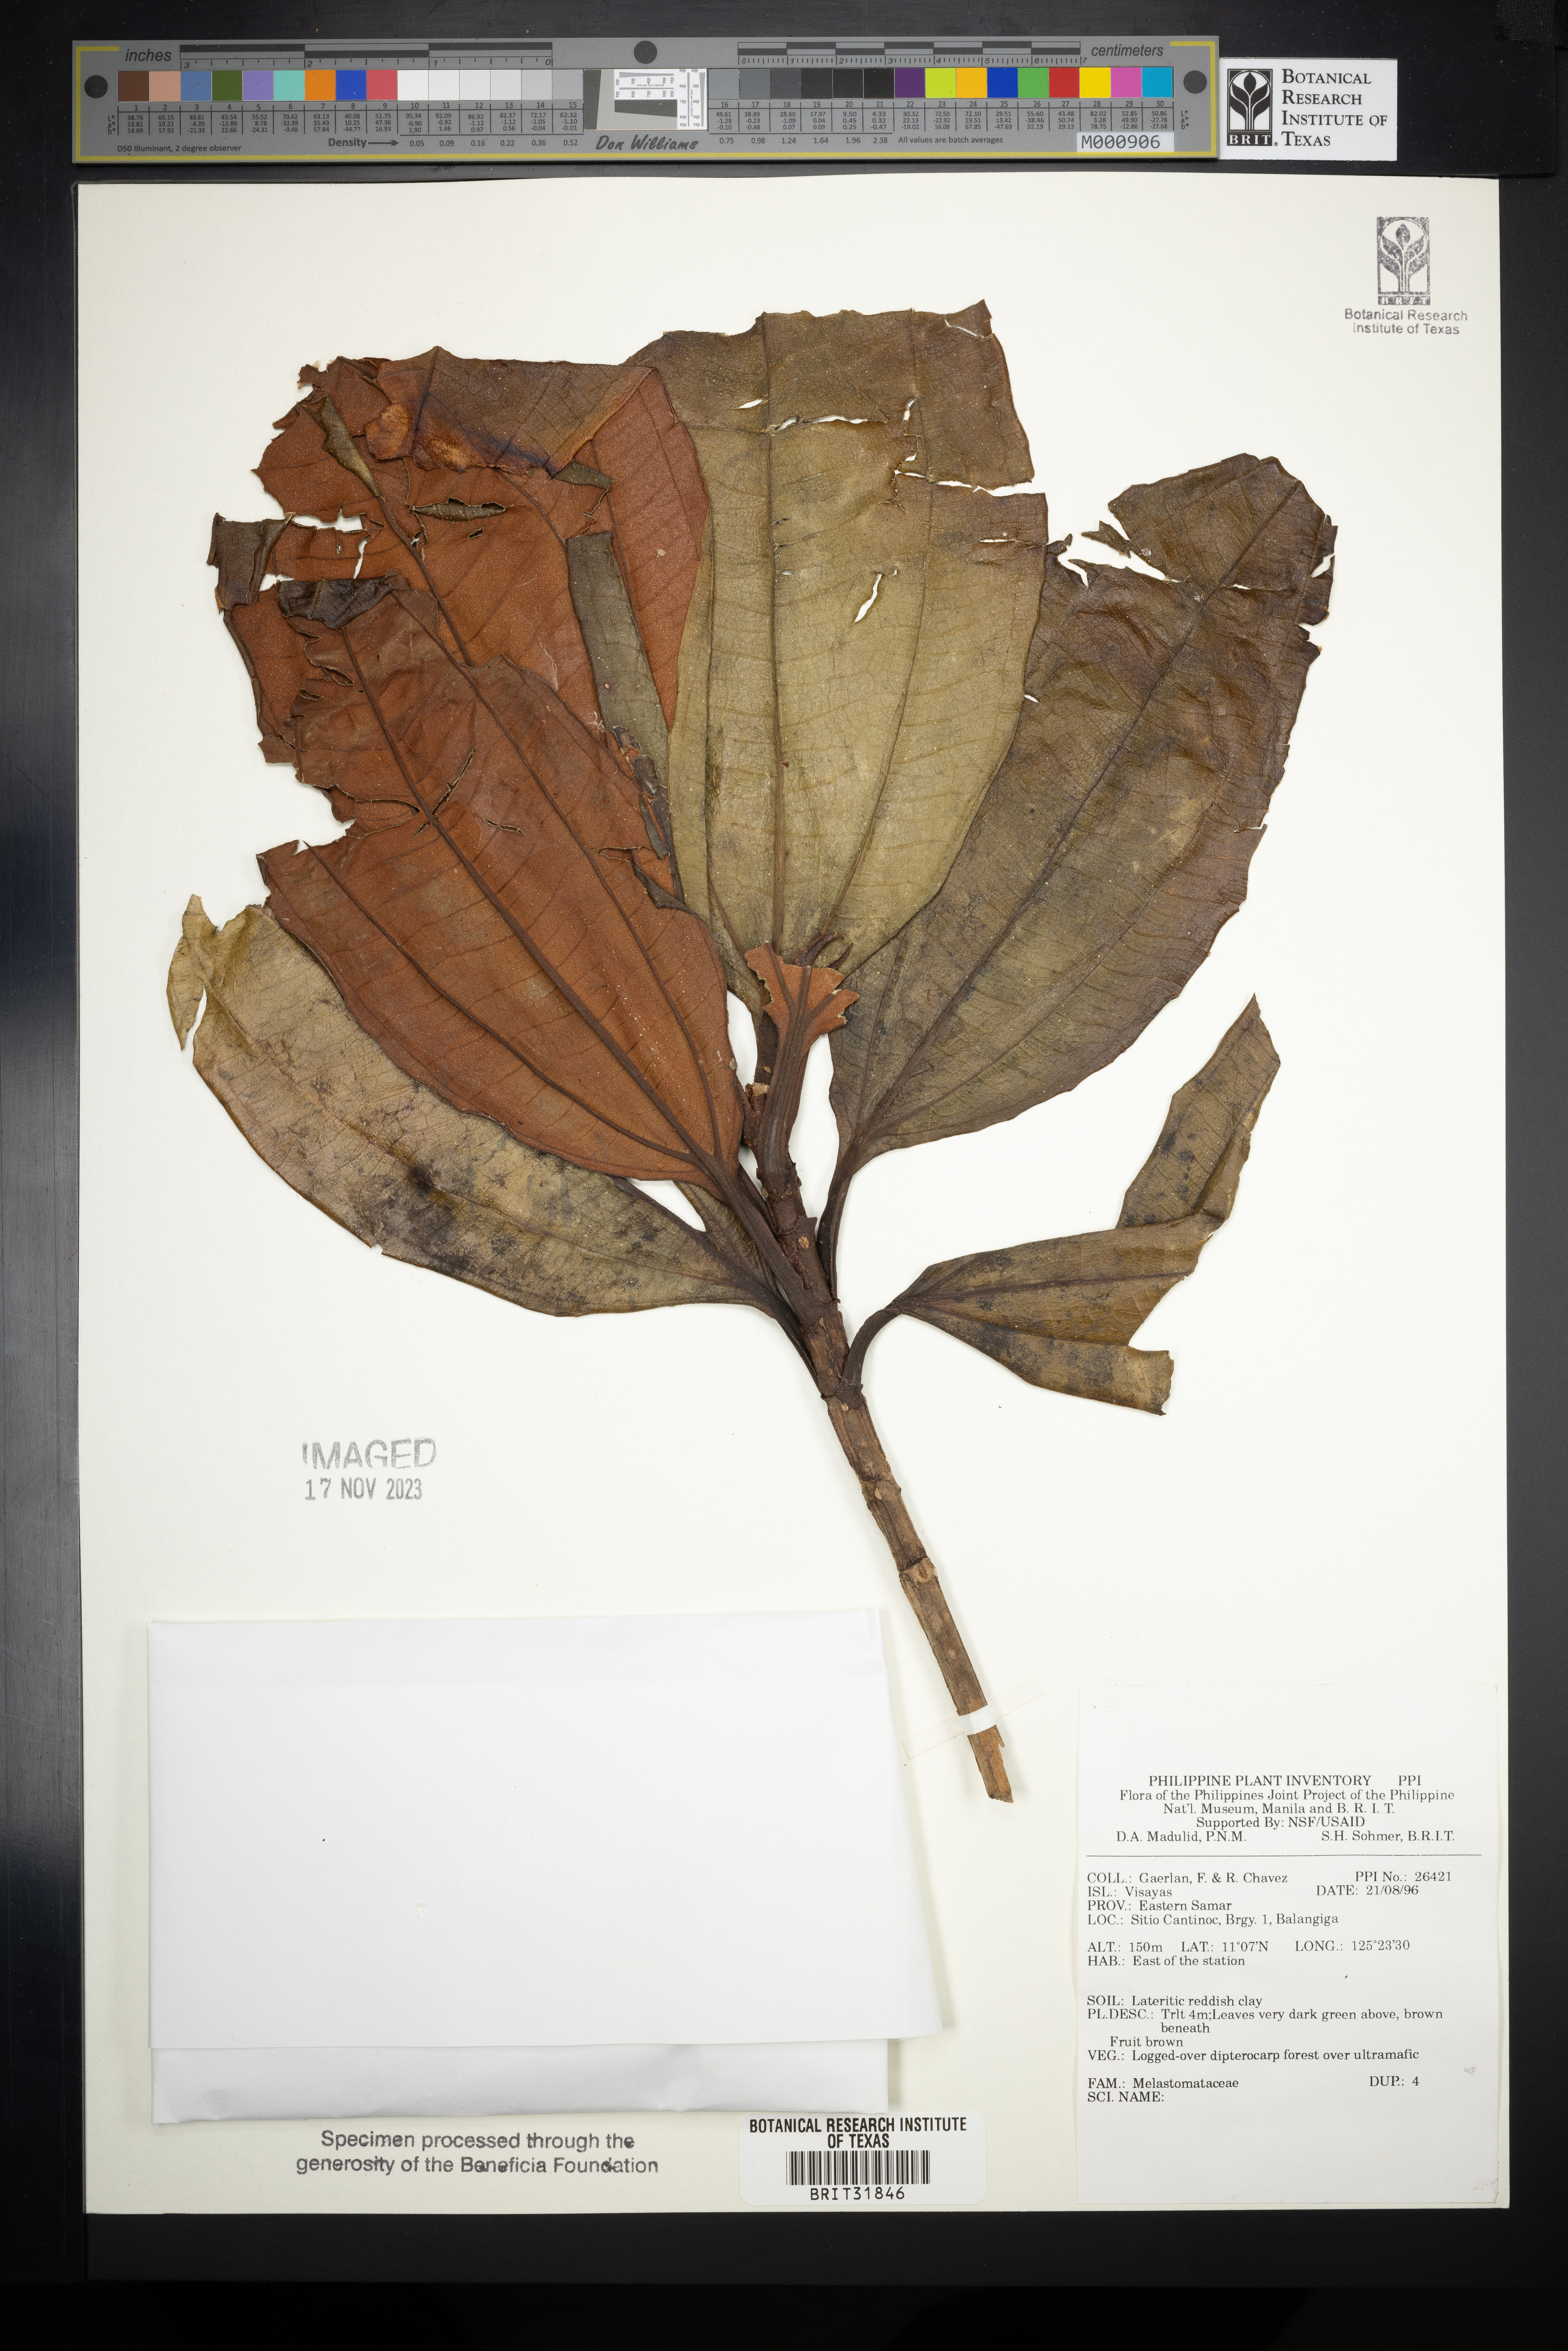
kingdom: Plantae
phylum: Tracheophyta
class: Magnoliopsida
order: Myrtales
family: Melastomataceae
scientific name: Melastomataceae
